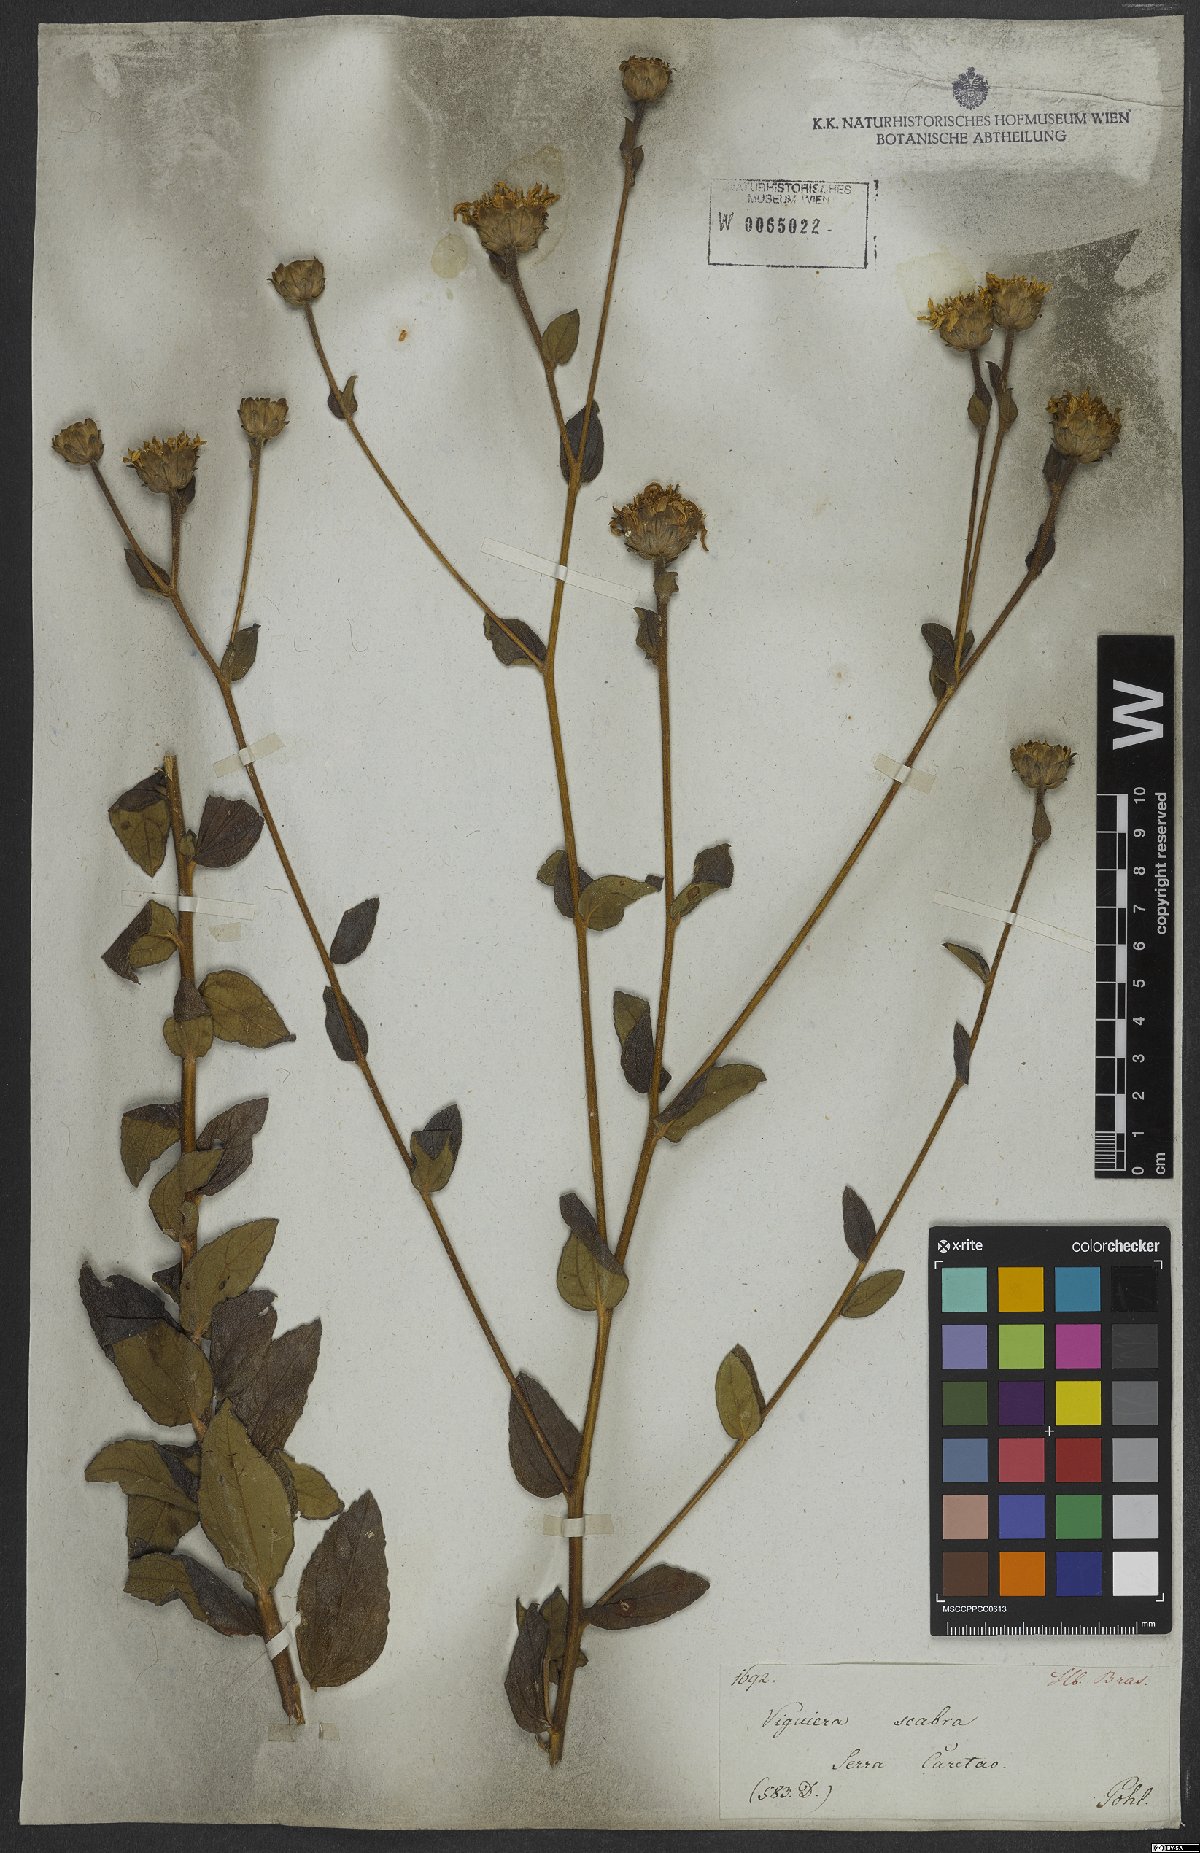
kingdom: Plantae
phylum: Tracheophyta
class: Magnoliopsida
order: Asterales
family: Asteraceae
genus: Aldama
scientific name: Aldama robusta
